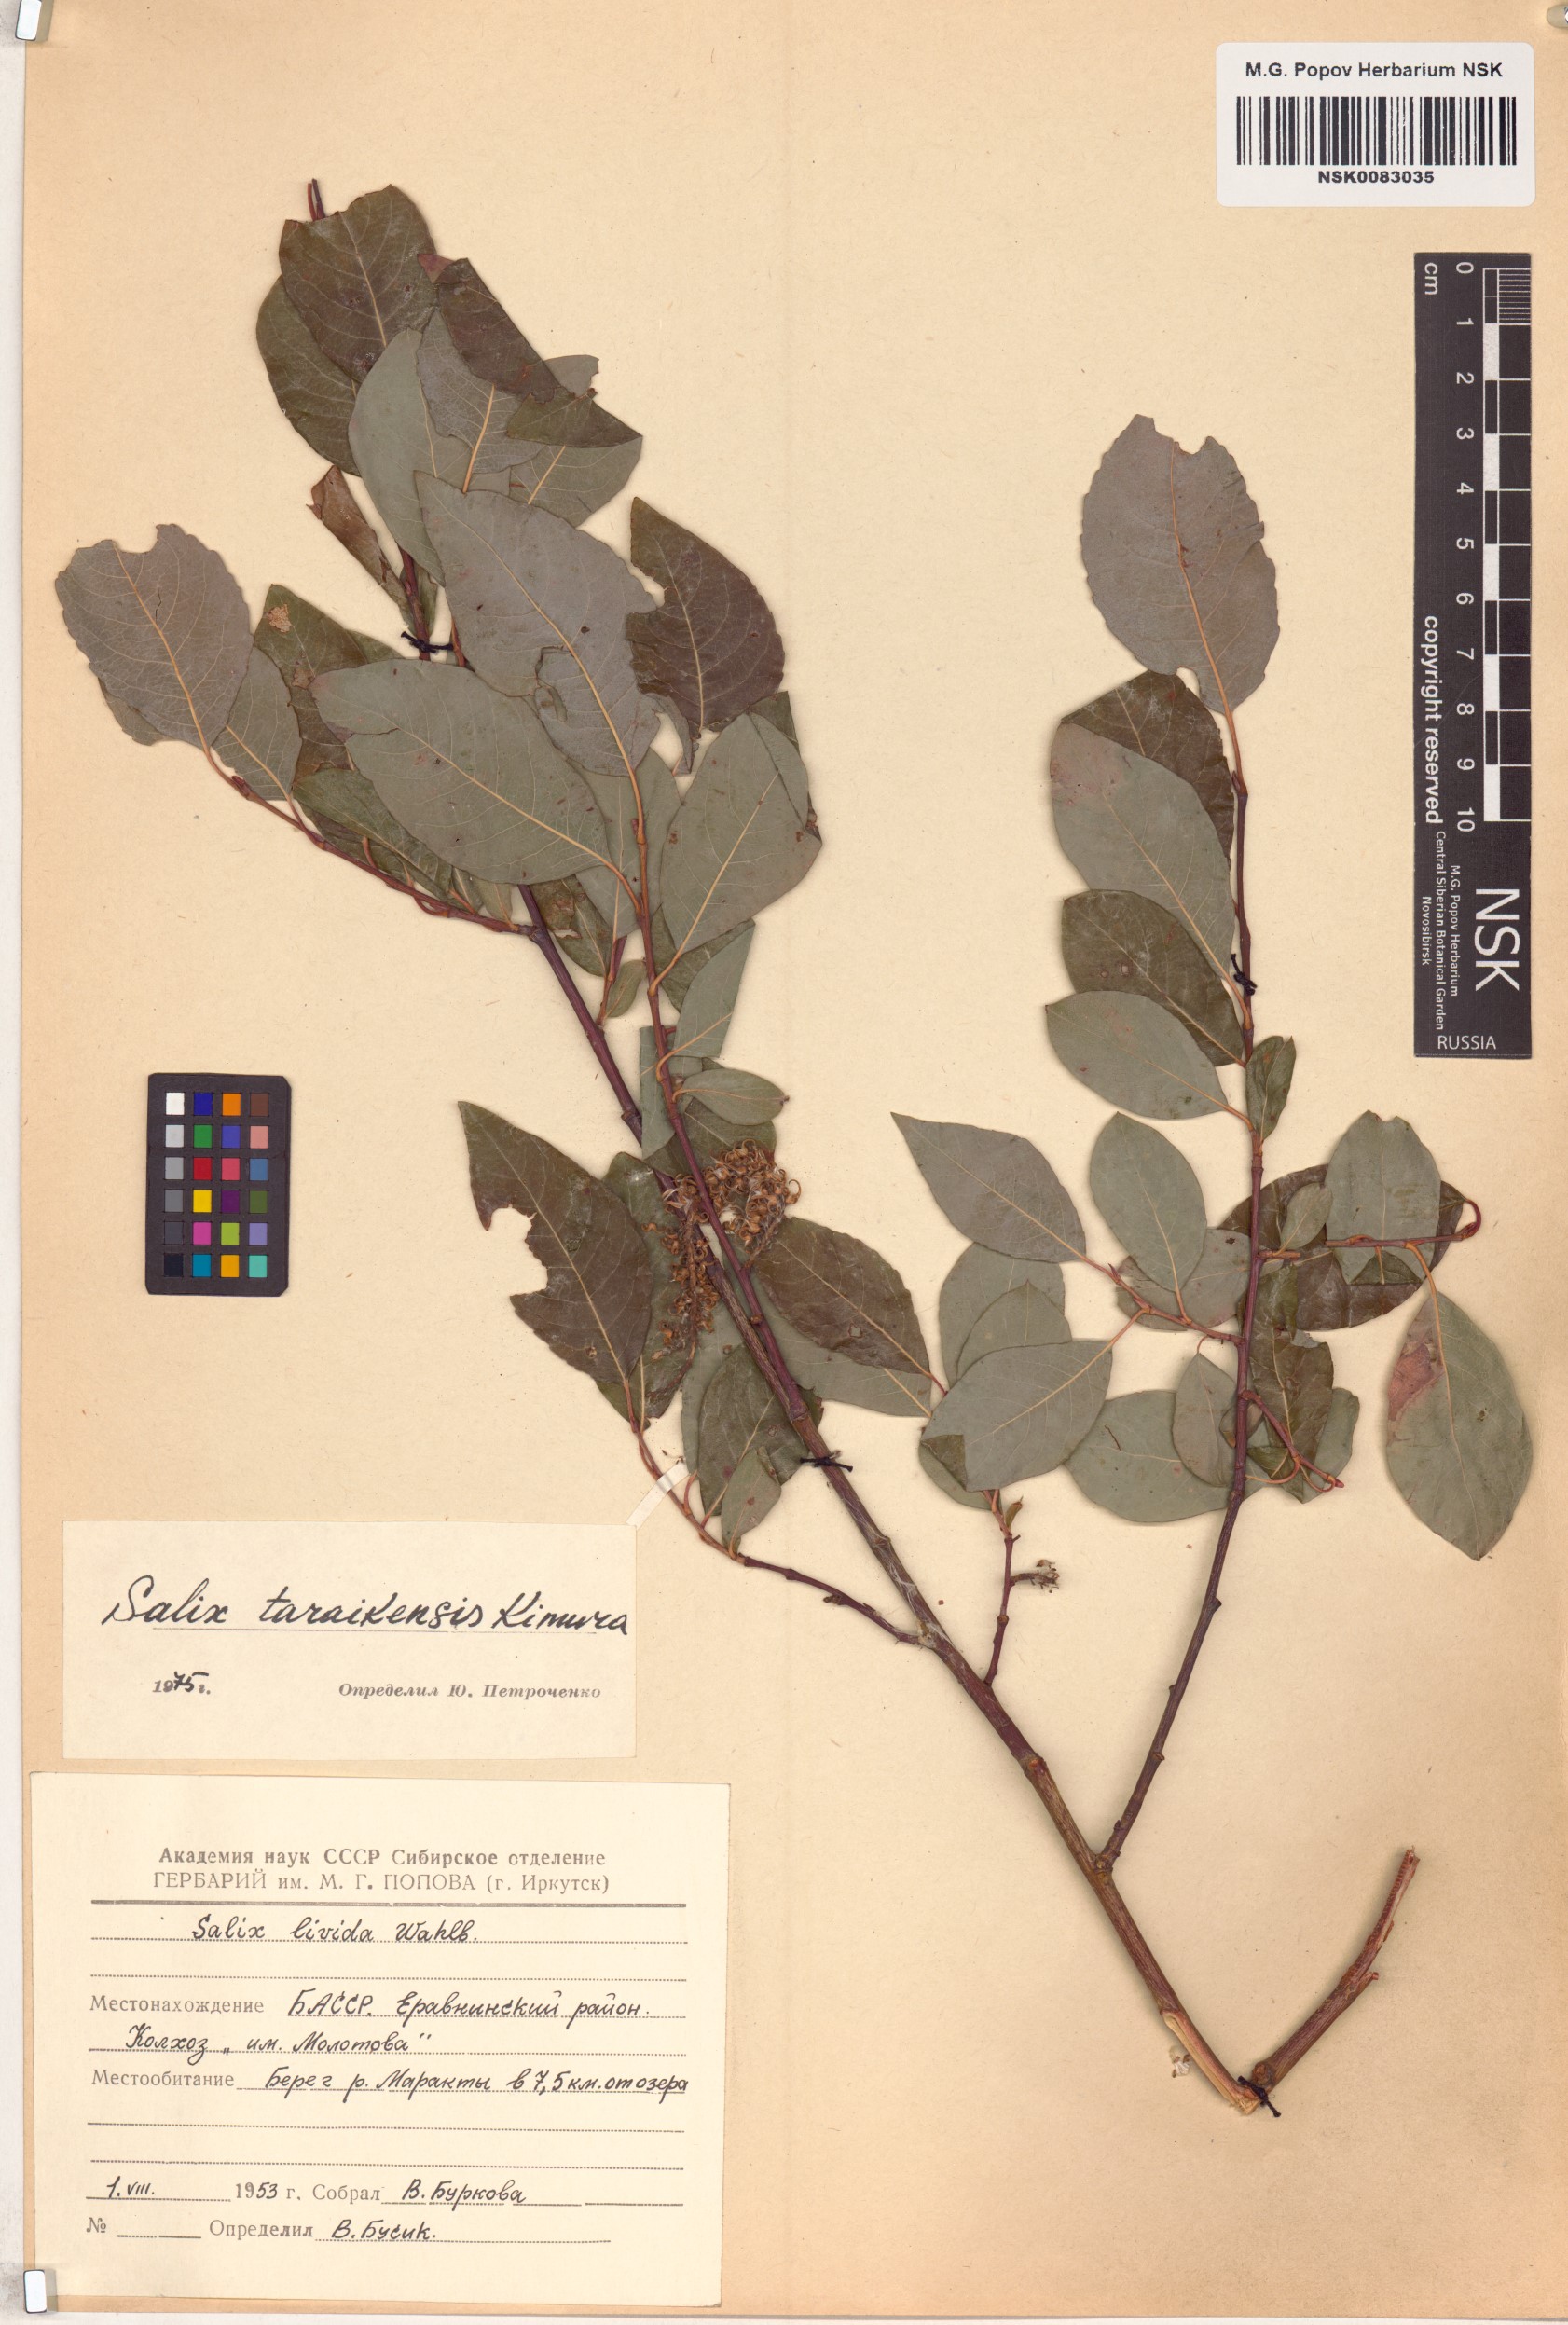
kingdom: Plantae
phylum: Tracheophyta
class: Magnoliopsida
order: Malpighiales
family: Salicaceae
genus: Salix
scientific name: Salix taraikensis
